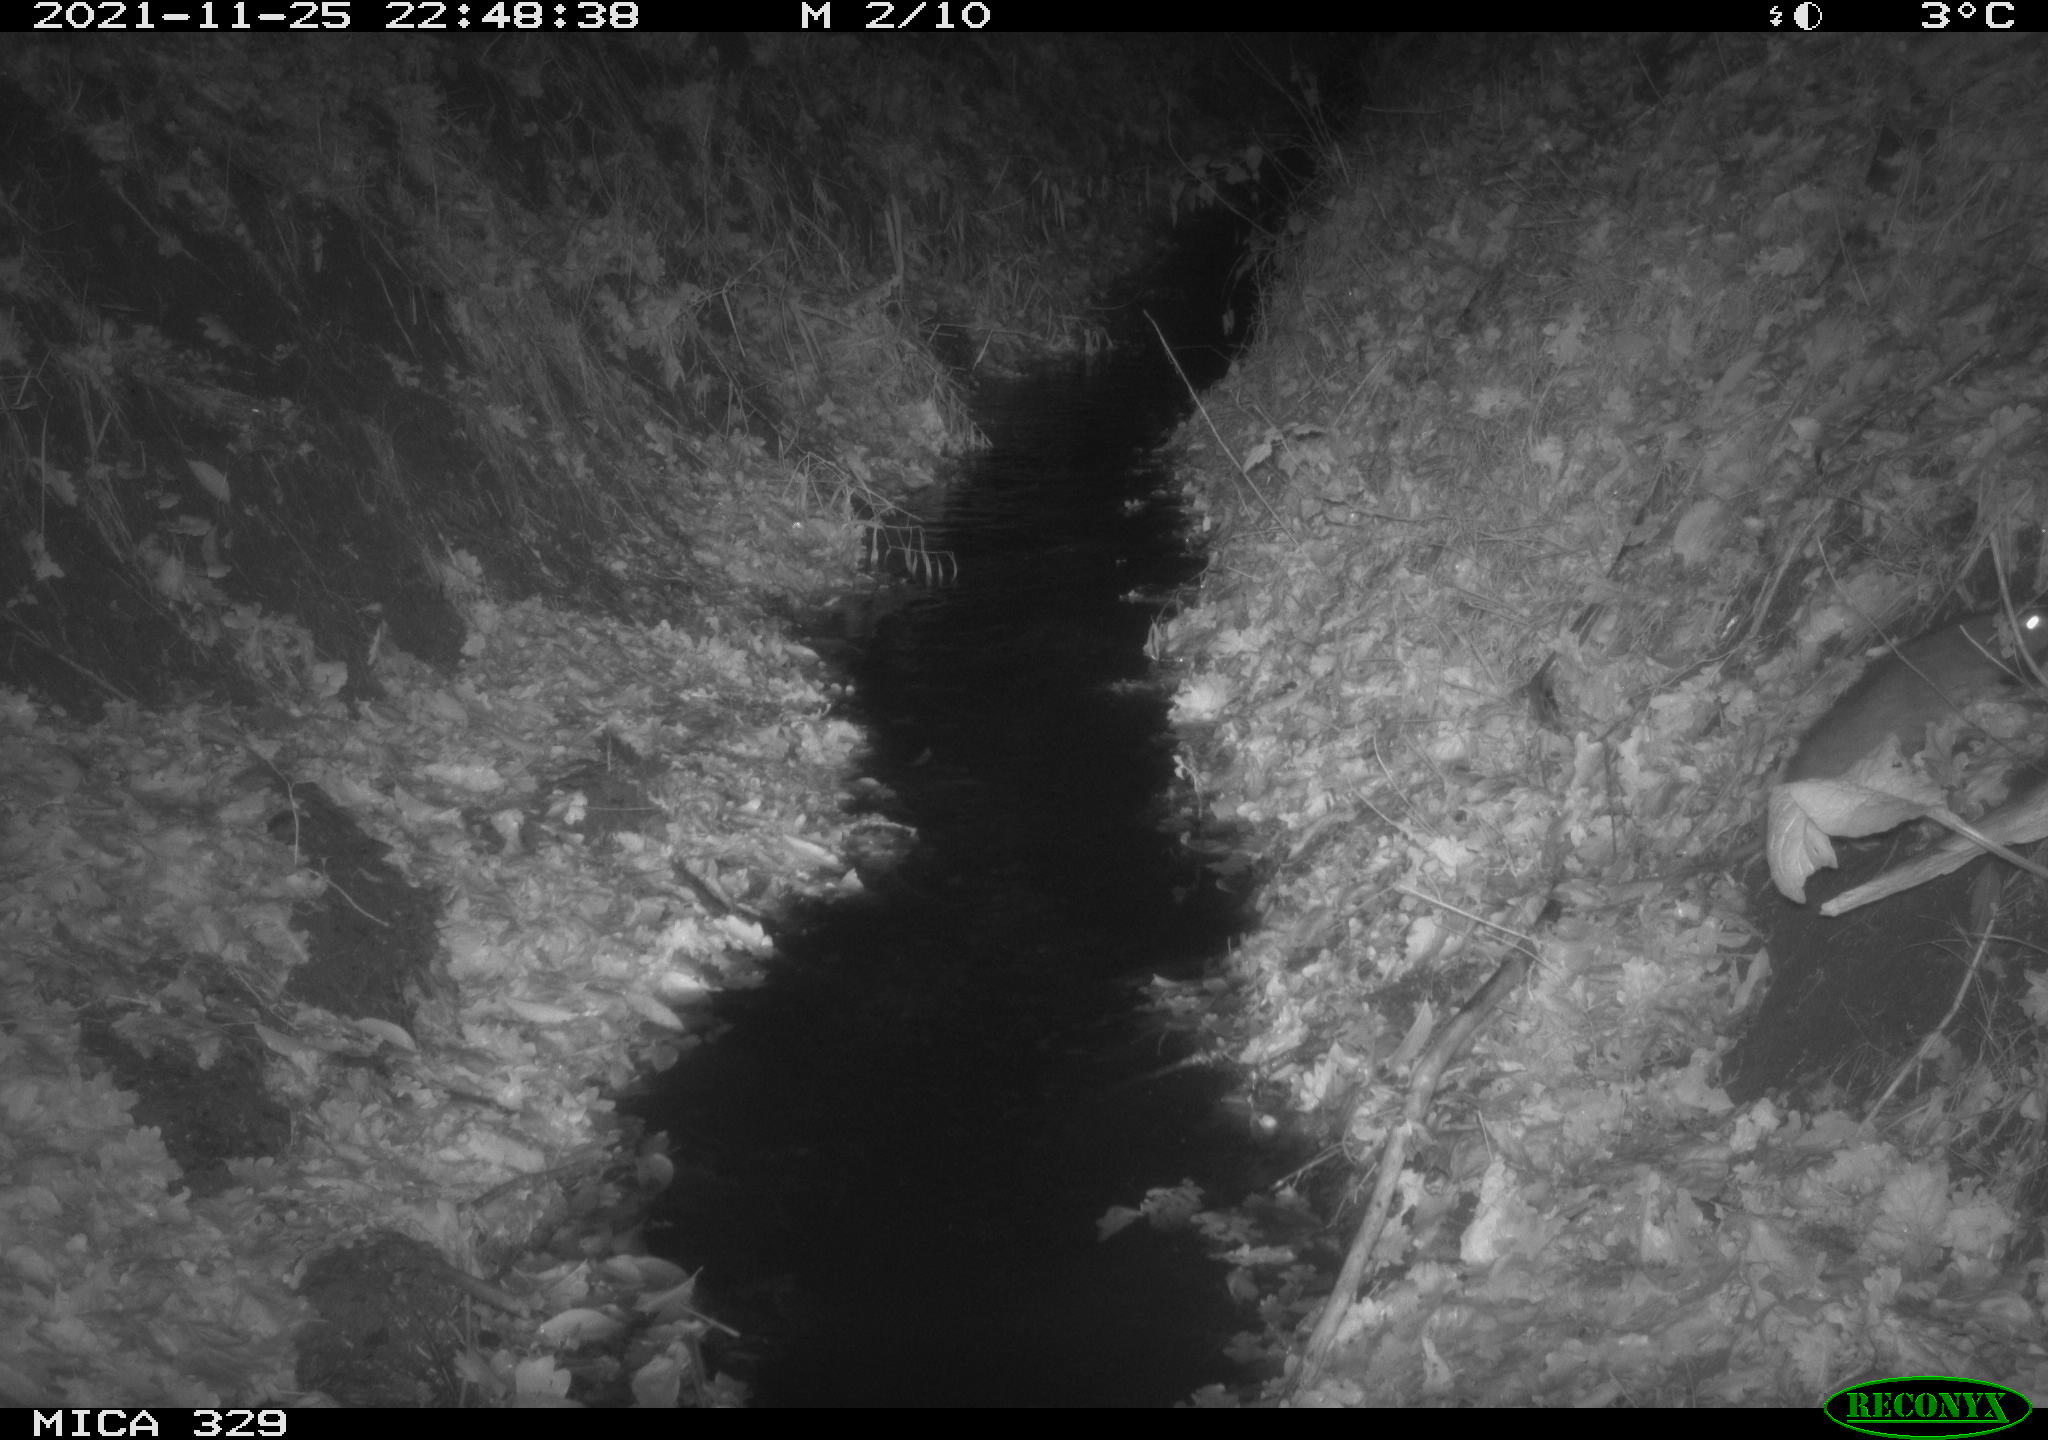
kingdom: Animalia
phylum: Chordata
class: Mammalia
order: Rodentia
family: Muridae
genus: Rattus
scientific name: Rattus norvegicus
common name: Brown rat
